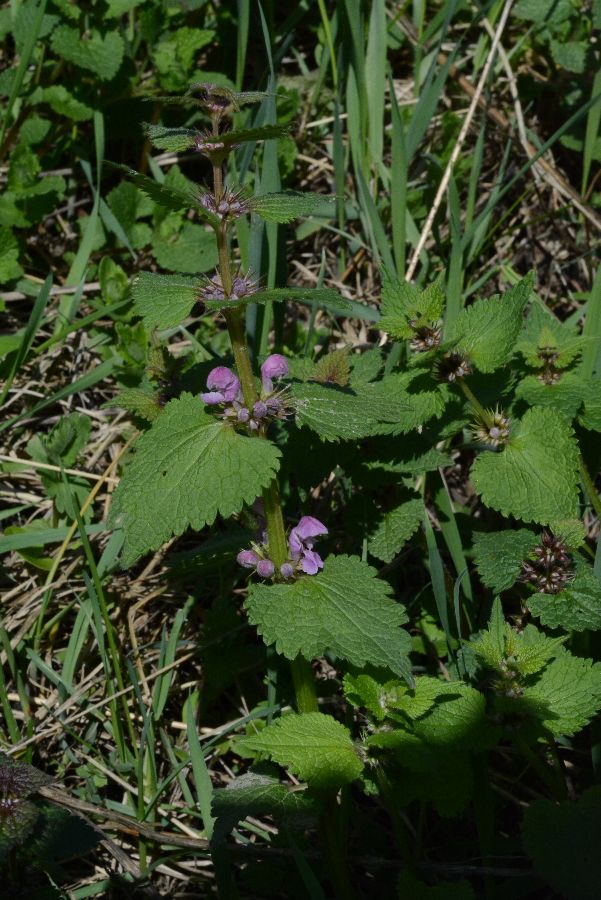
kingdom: Plantae
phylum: Tracheophyta
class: Magnoliopsida
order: Lamiales
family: Lamiaceae
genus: Lamium
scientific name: Lamium maculatum
